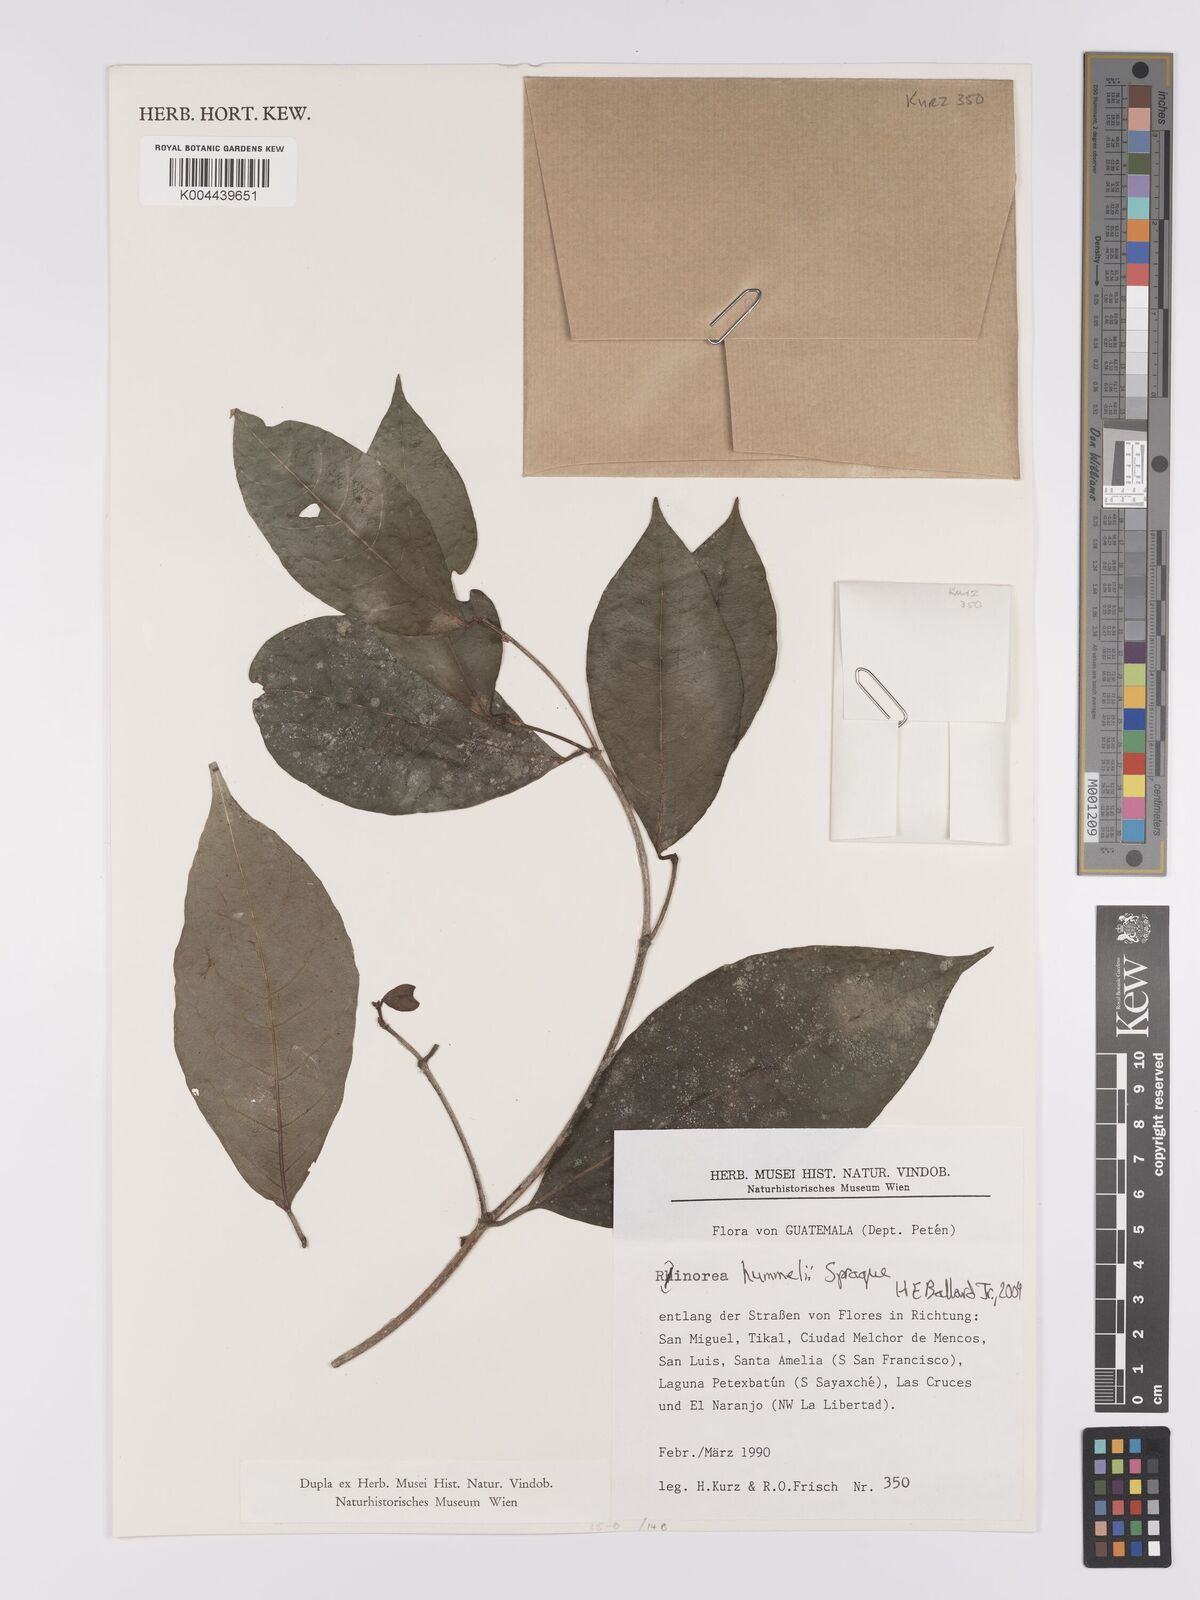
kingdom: Plantae
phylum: Tracheophyta
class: Magnoliopsida
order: Malpighiales
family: Violaceae
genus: Rinorea
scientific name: Rinorea
